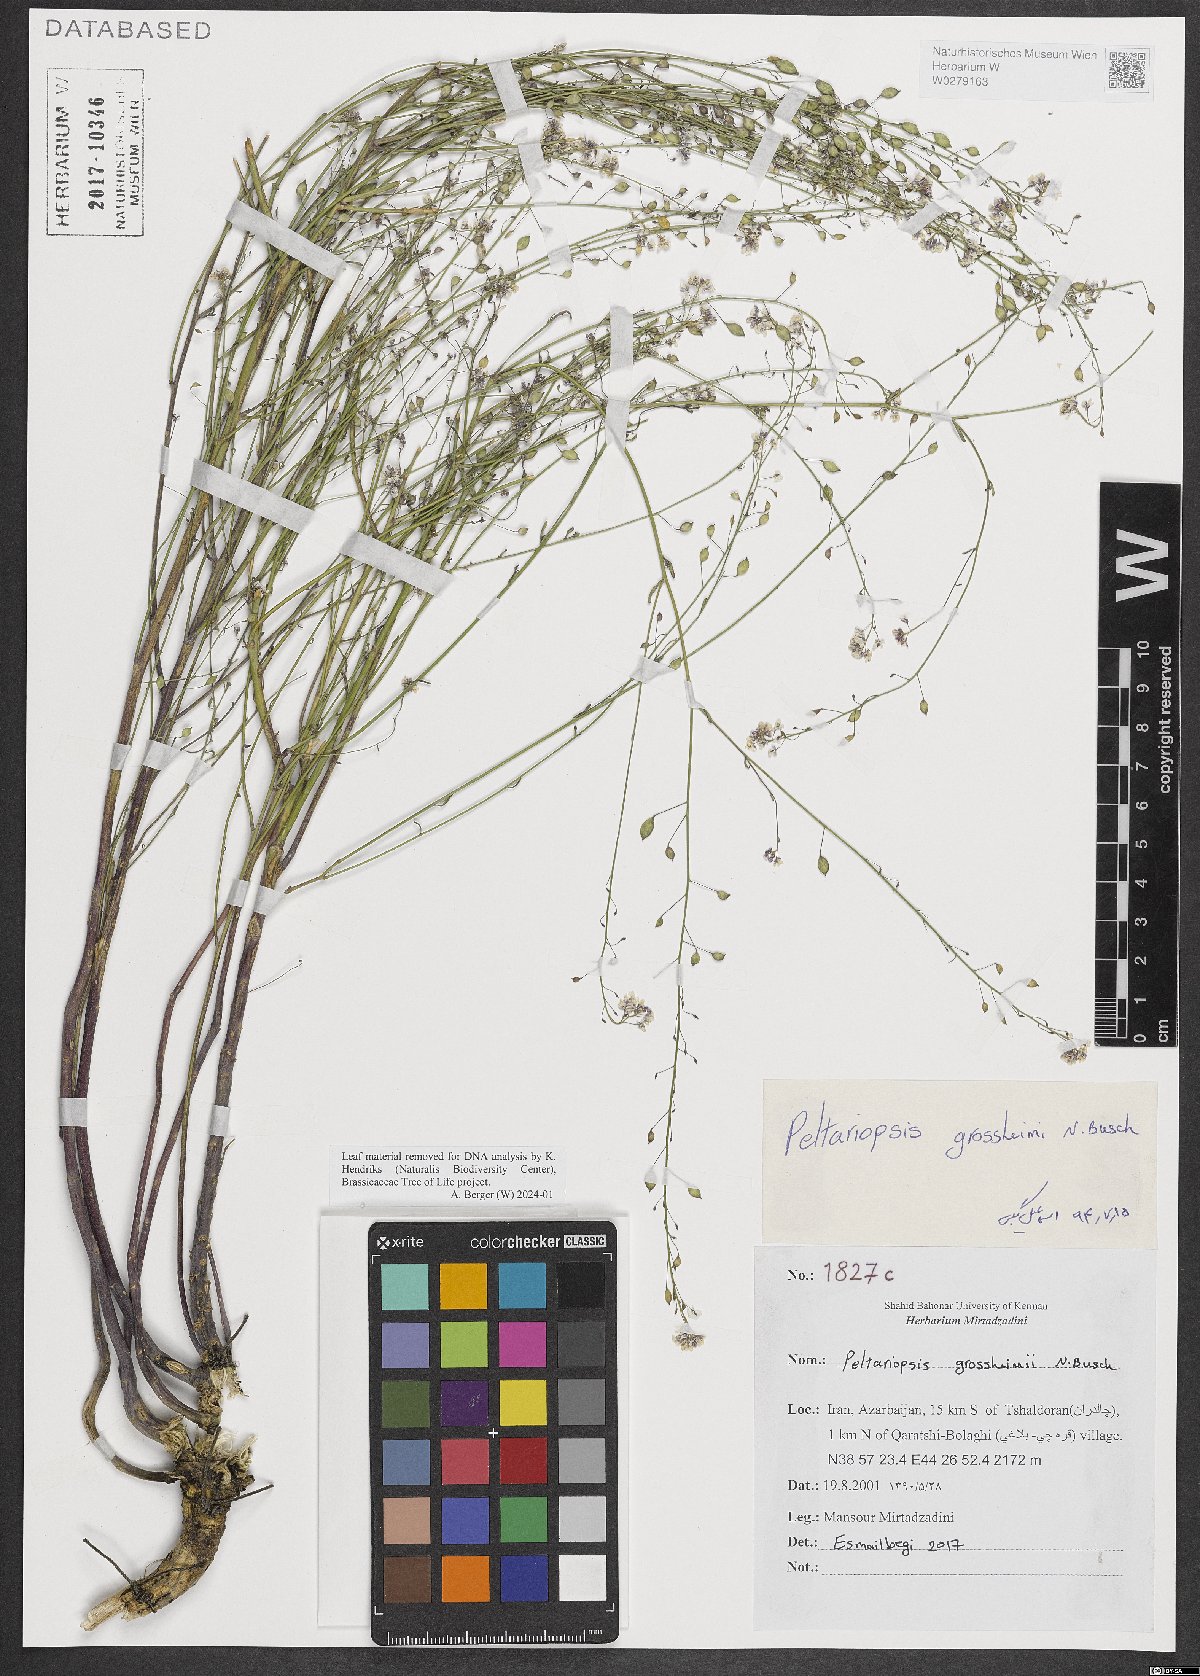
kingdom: Plantae
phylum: Tracheophyta
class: Magnoliopsida
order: Brassicales
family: Brassicaceae
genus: Peltariopsis
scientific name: Peltariopsis grossheimii
